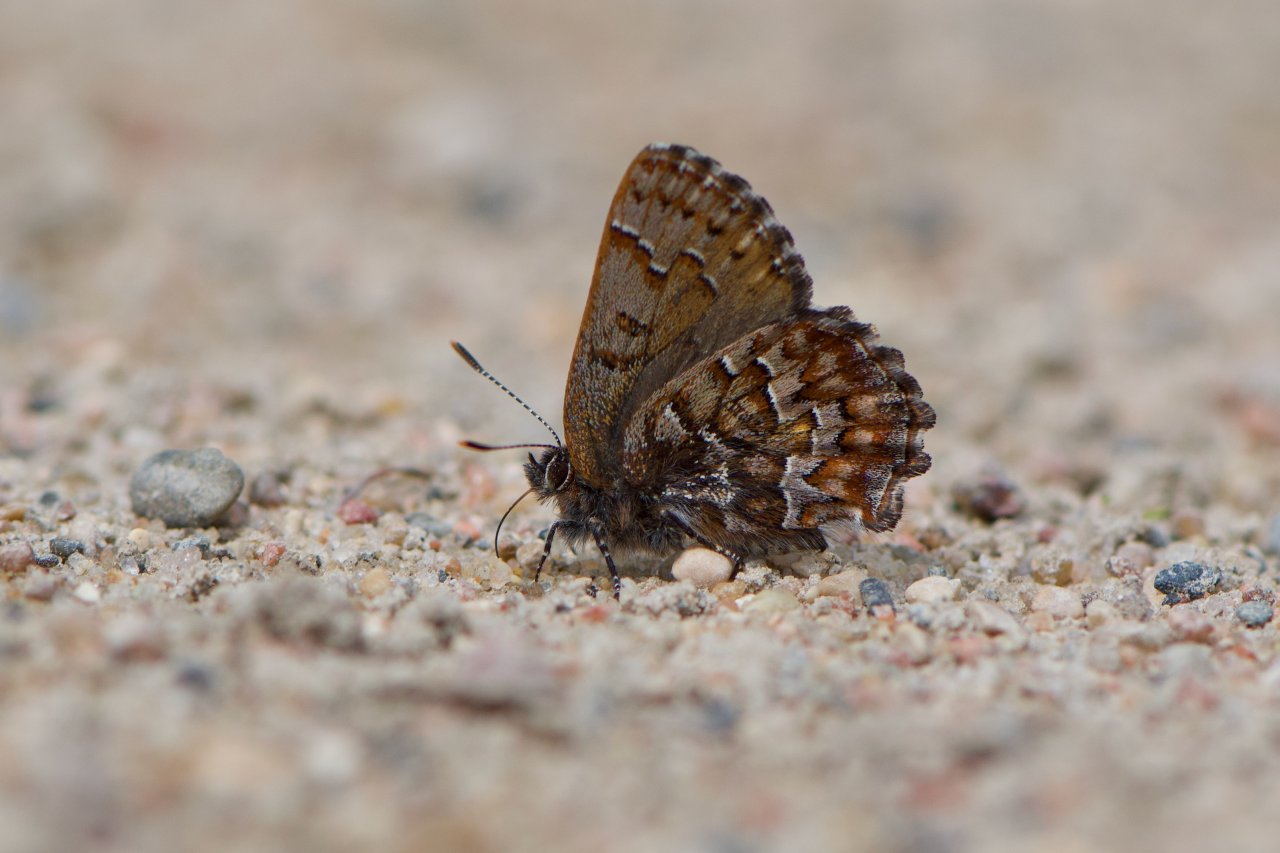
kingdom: Animalia
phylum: Arthropoda
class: Insecta
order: Lepidoptera
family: Lycaenidae
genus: Incisalia
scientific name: Incisalia niphon
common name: Eastern Pine Elfin
